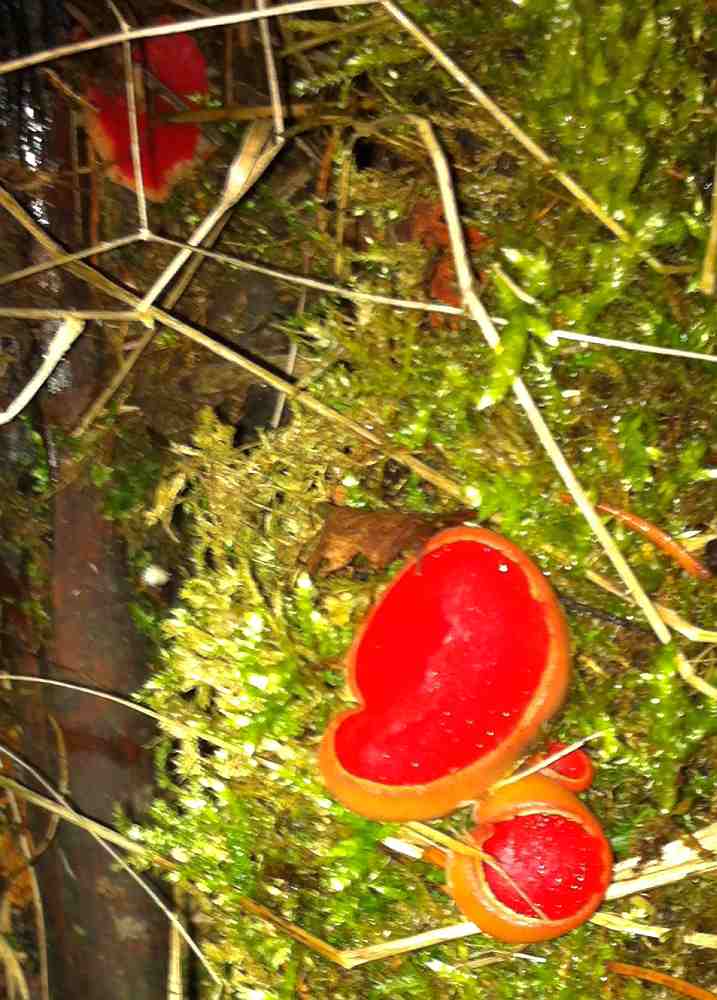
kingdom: Fungi
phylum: Ascomycota
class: Pezizomycetes
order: Pezizales
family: Sarcoscyphaceae
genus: Sarcoscypha
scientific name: Sarcoscypha austriaca
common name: krølhåret pragtbæger
